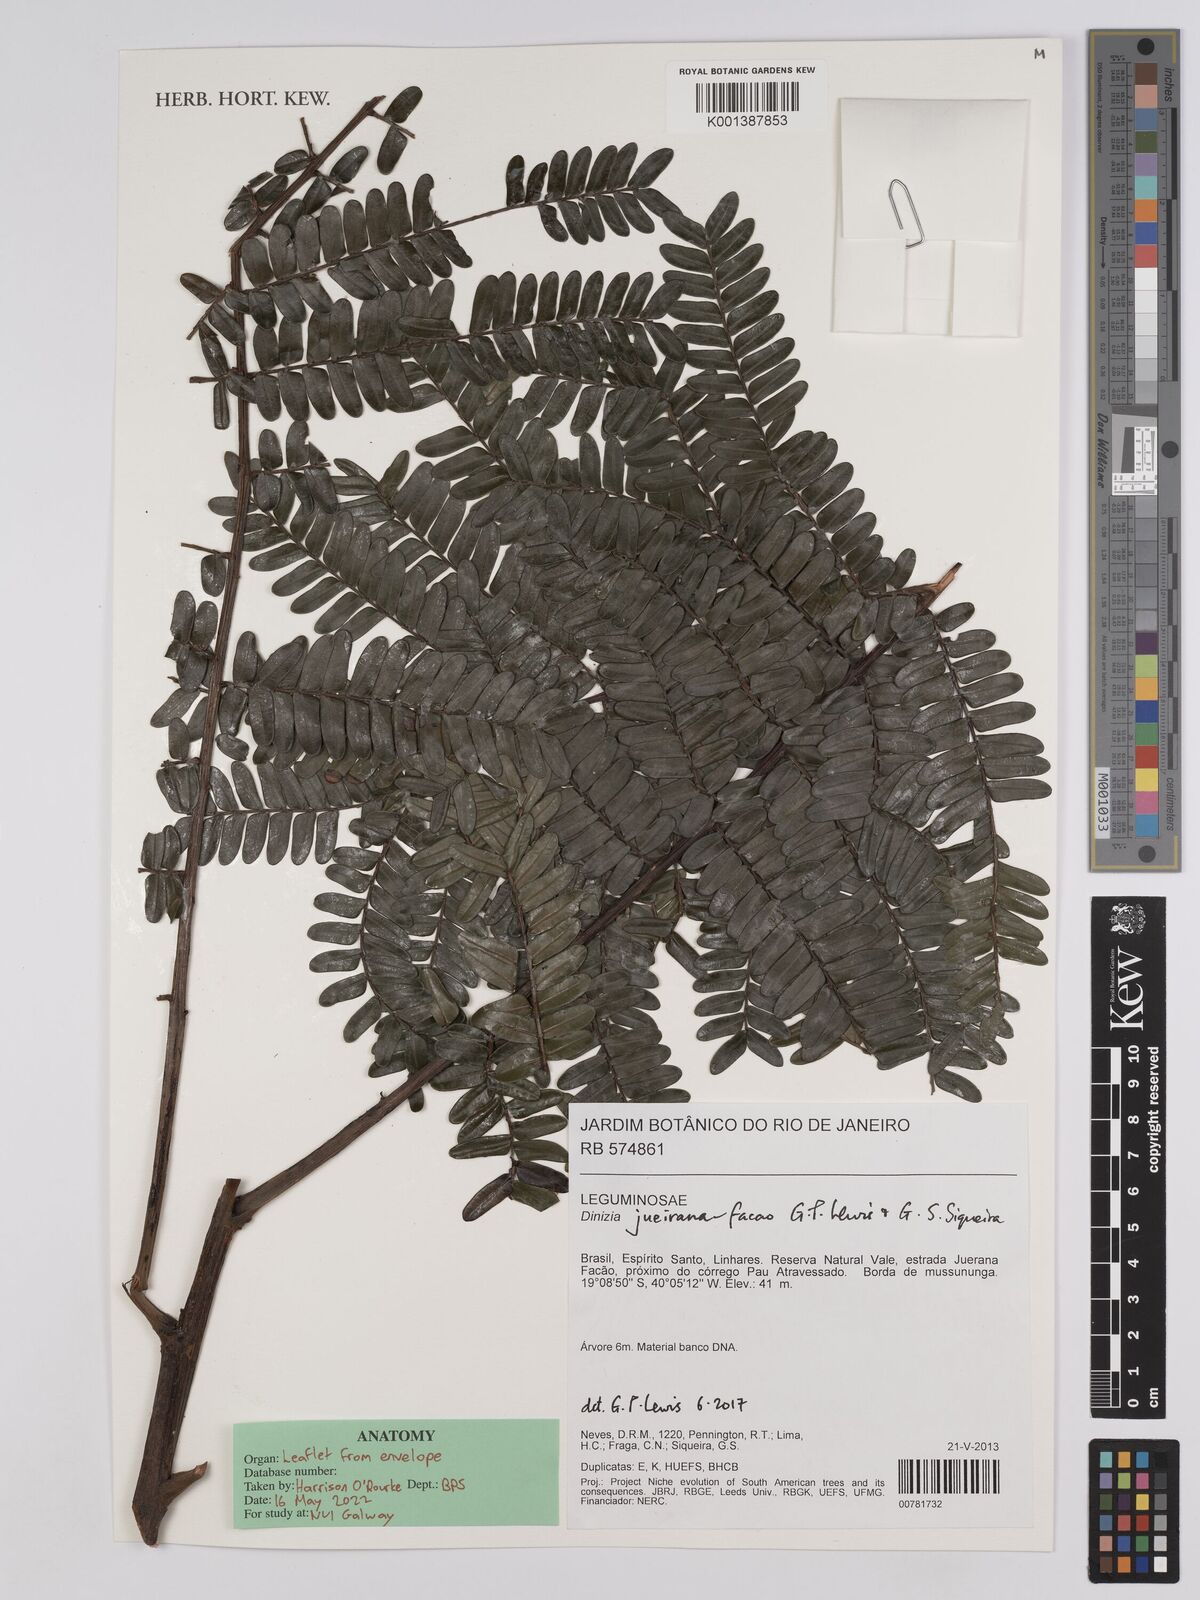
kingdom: Plantae
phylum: Tracheophyta
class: Magnoliopsida
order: Fabales
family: Fabaceae
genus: Dinizia
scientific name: Dinizia jueirana-facao
